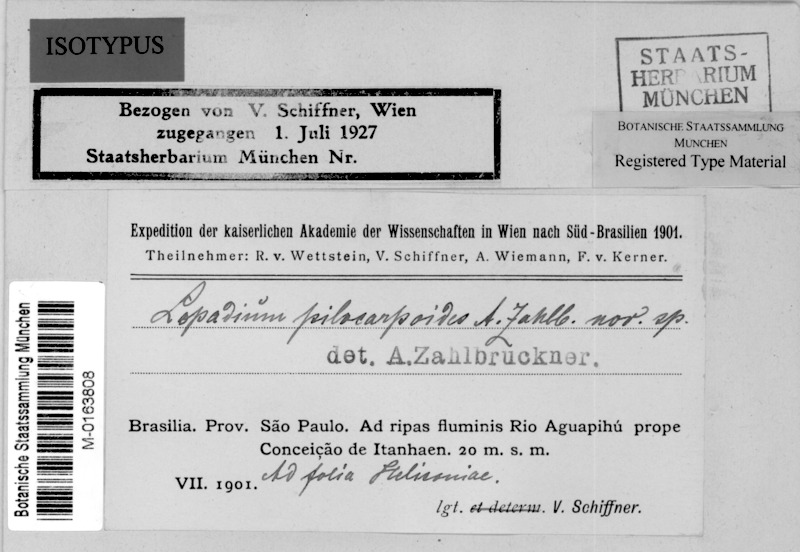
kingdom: Fungi
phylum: Ascomycota
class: Lecanoromycetes
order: Lecanorales
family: Byssolomataceae
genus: Sporopodium
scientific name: Sporopodium pilocarpoides
